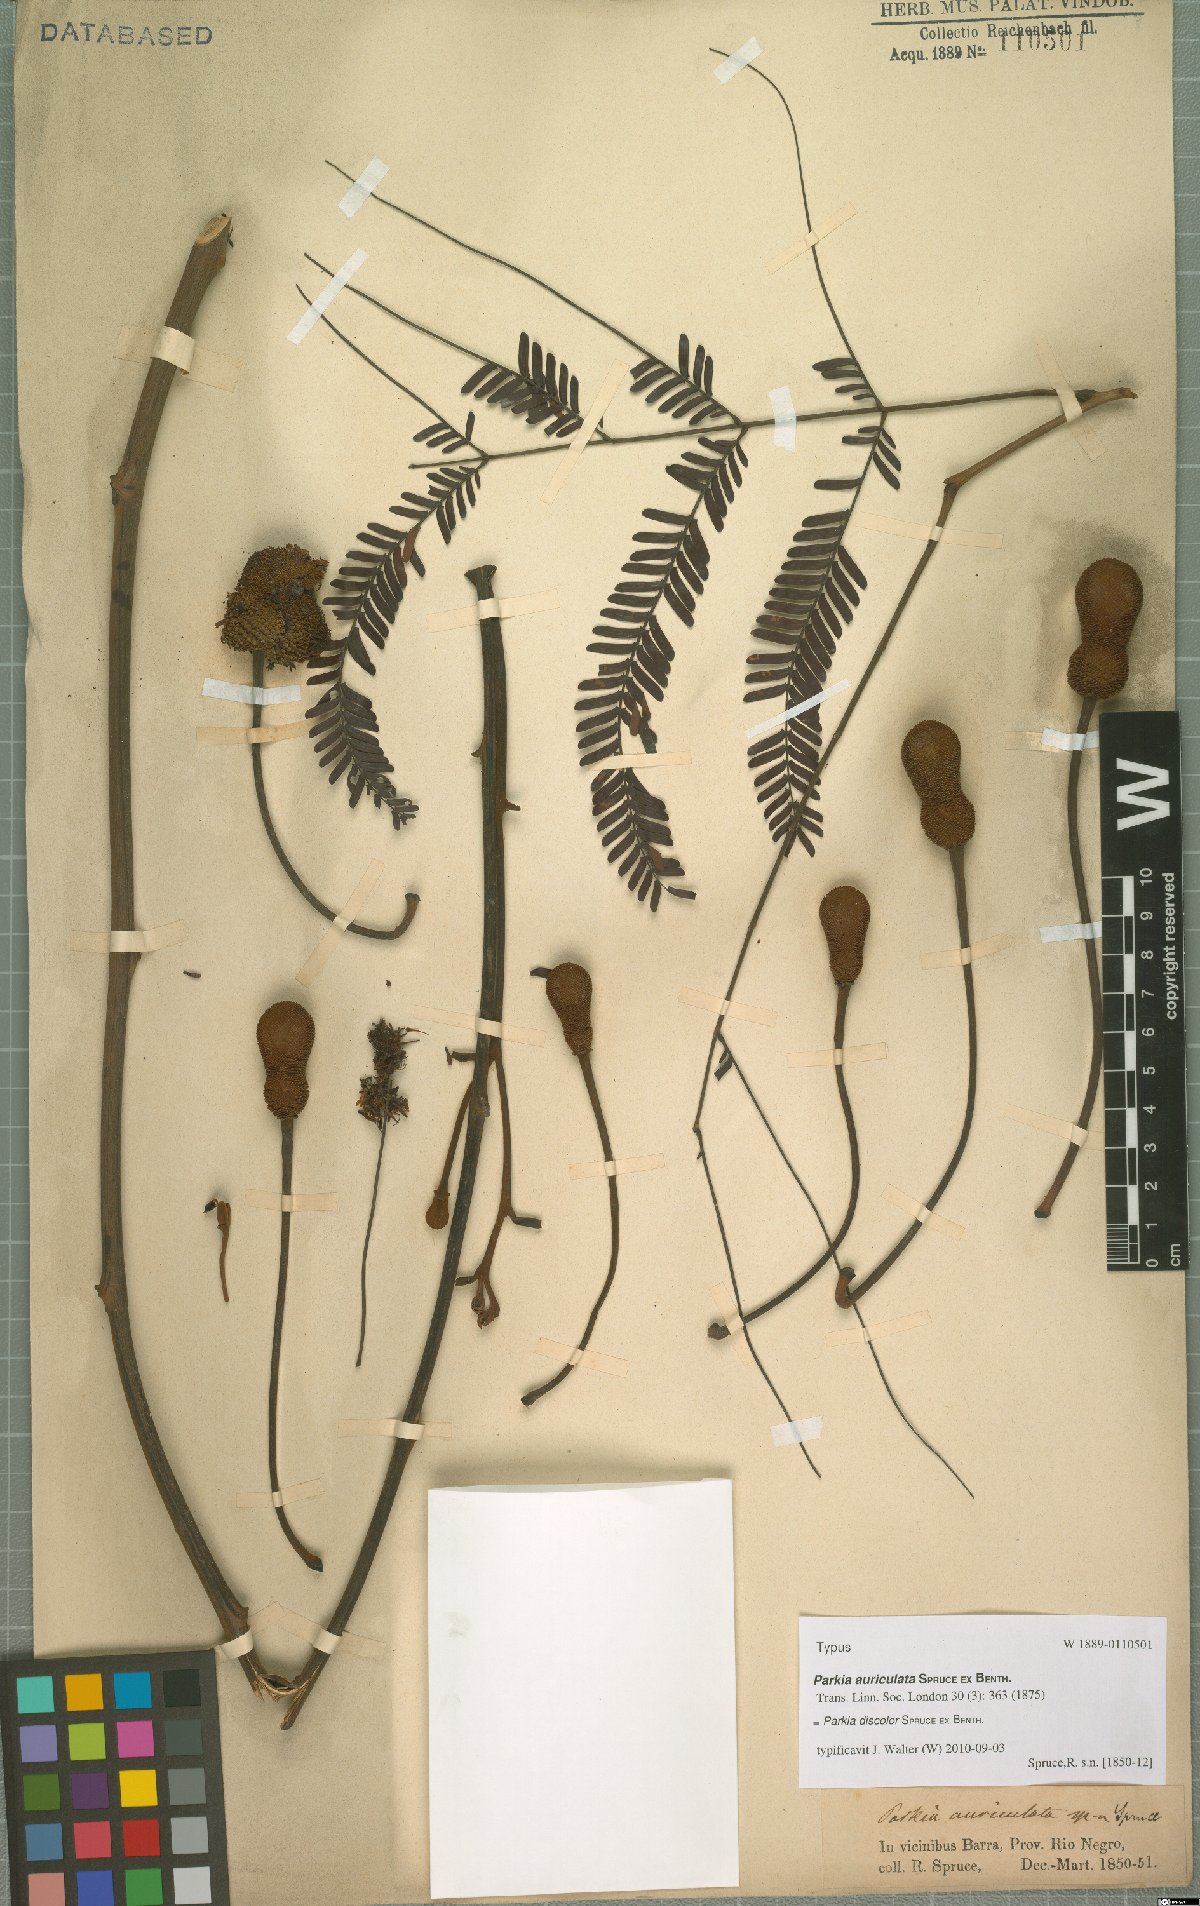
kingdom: Plantae
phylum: Tracheophyta
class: Magnoliopsida
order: Fabales
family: Fabaceae
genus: Parkia
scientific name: Parkia discolor
